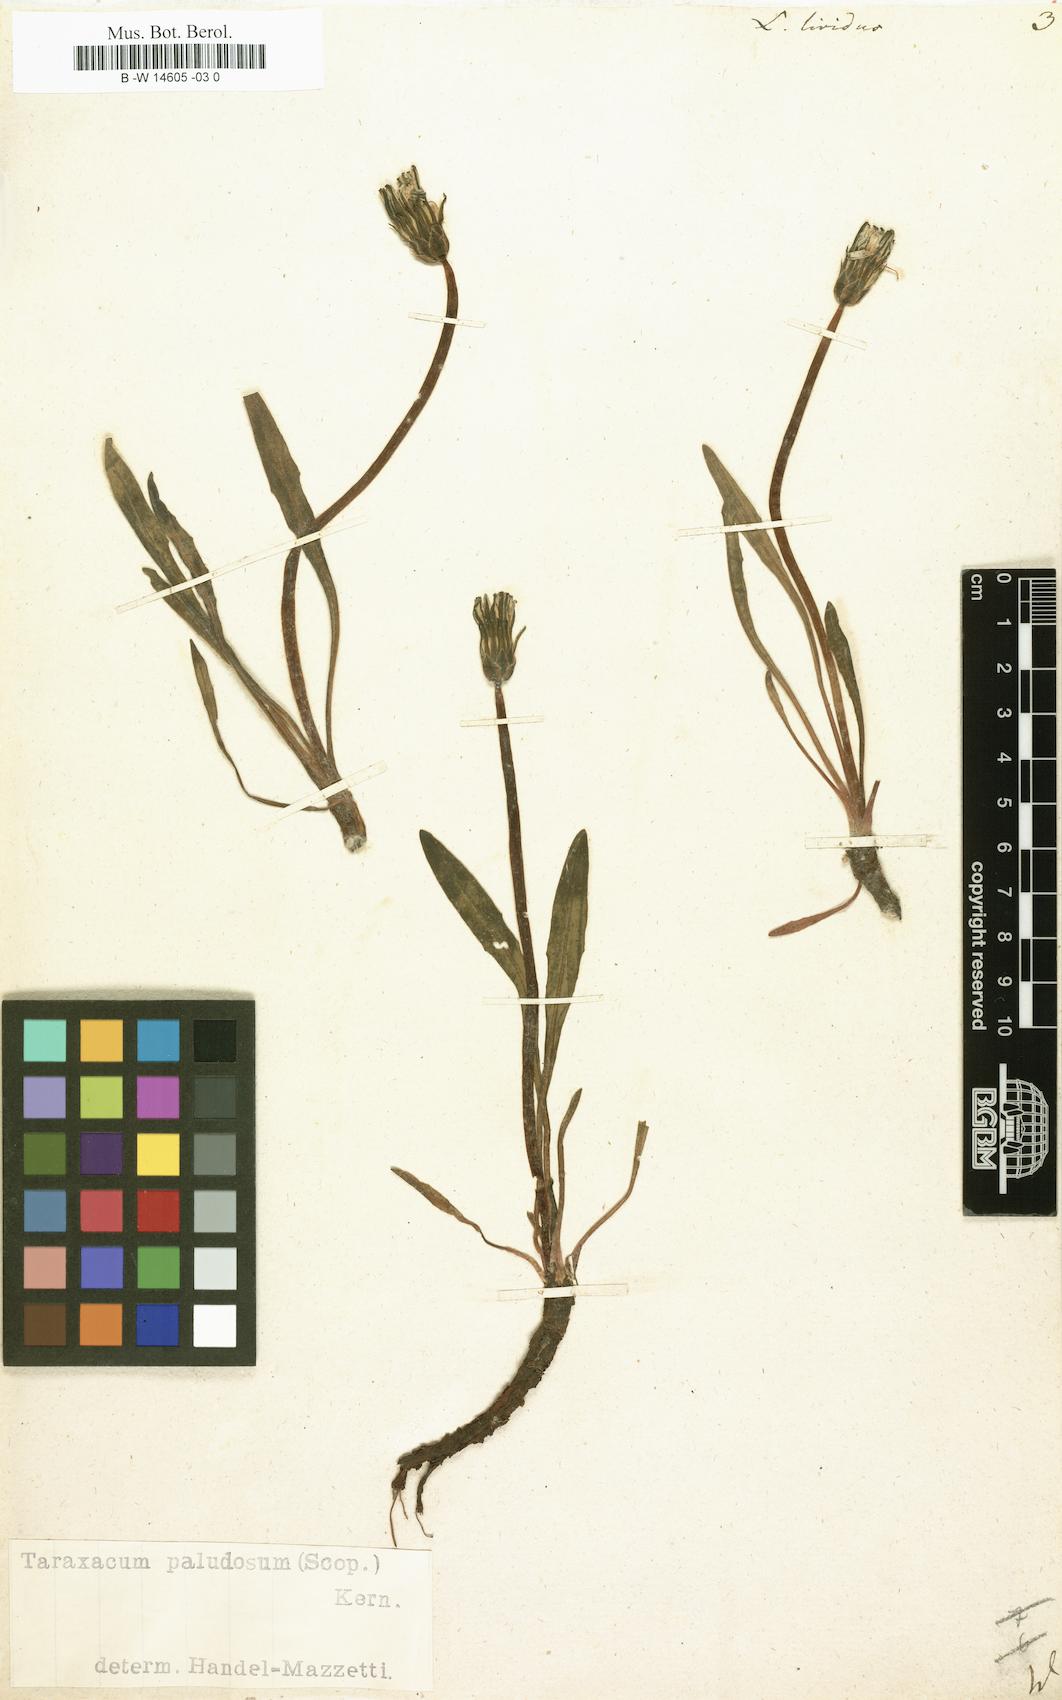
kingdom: Plantae
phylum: Tracheophyta
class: Magnoliopsida
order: Asterales
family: Asteraceae
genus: Taraxacum
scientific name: Taraxacum paludosum
